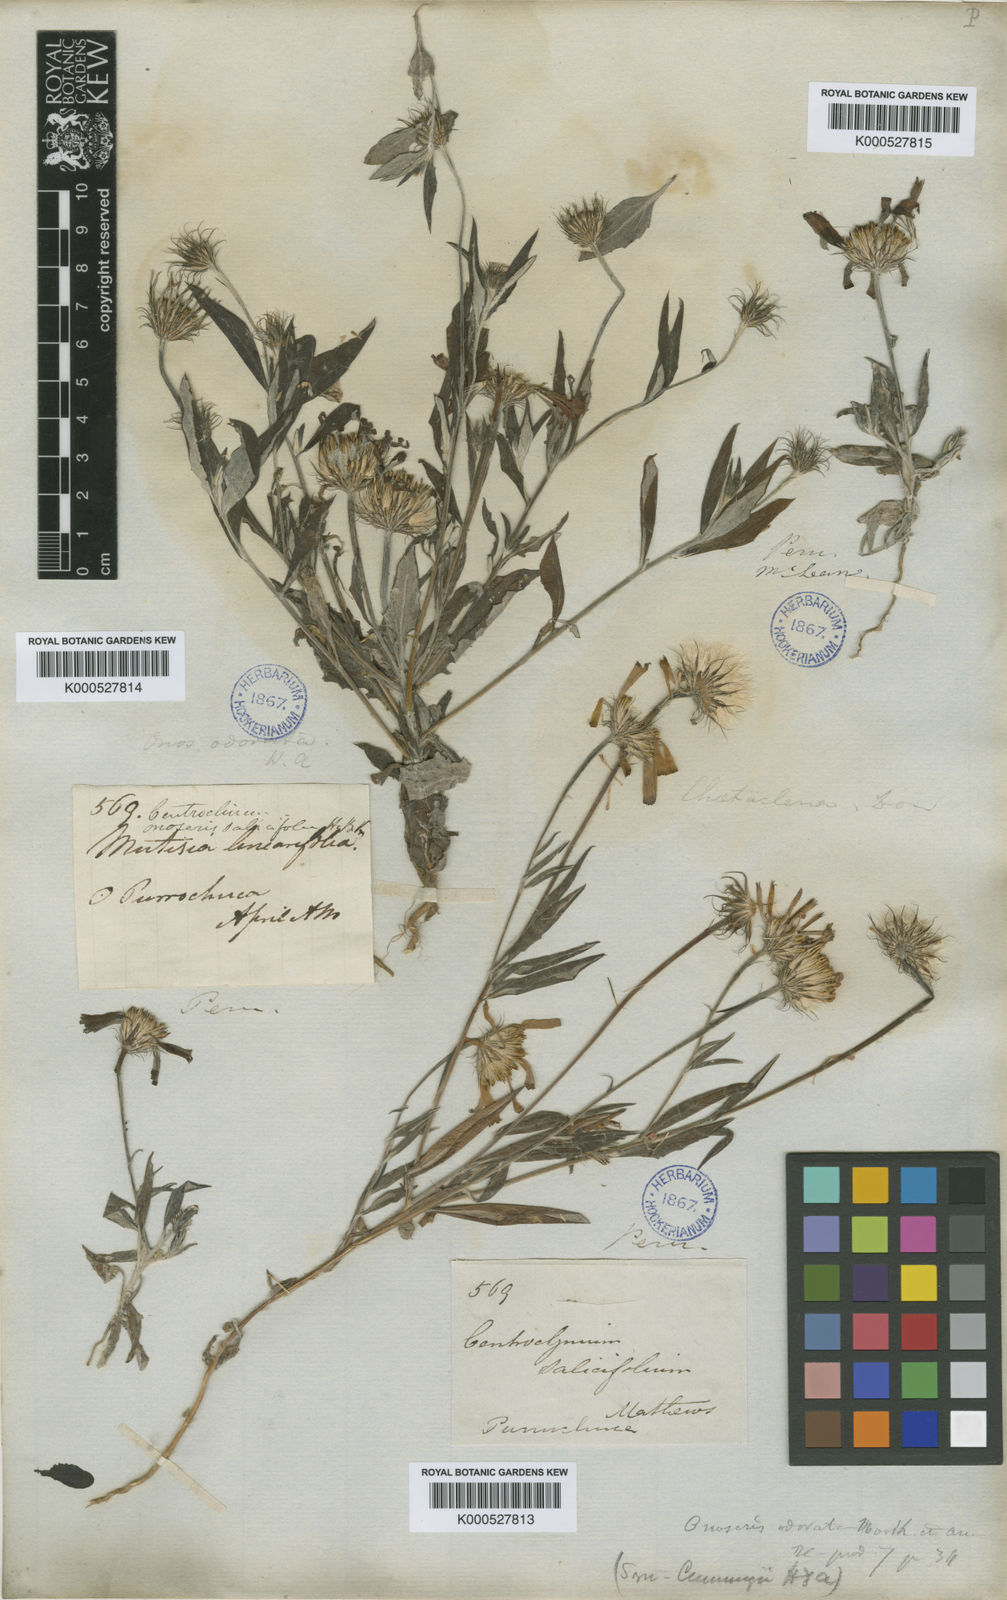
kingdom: Plantae
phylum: Tracheophyta
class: Magnoliopsida
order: Asterales
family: Asteraceae
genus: Onoseris
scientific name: Onoseris odorata
